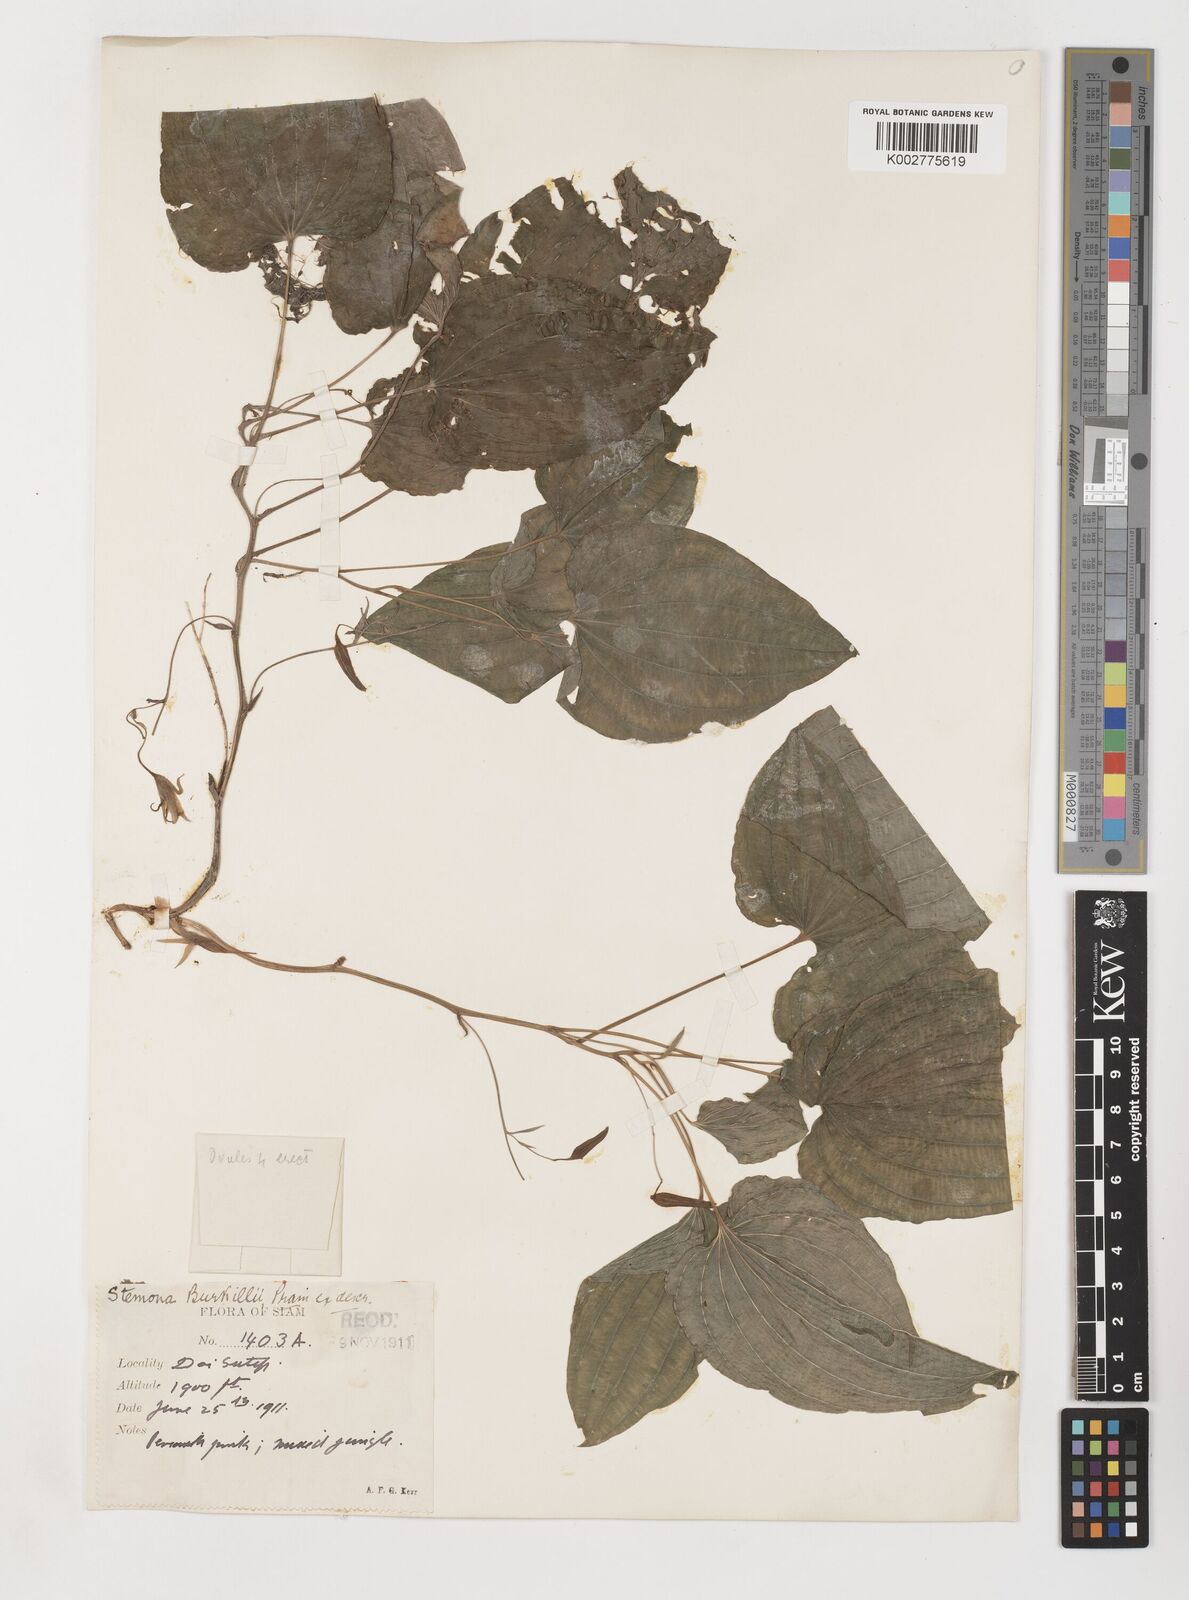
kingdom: Plantae
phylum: Tracheophyta
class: Liliopsida
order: Pandanales
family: Stemonaceae
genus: Stemona
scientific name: Stemona burkillii
